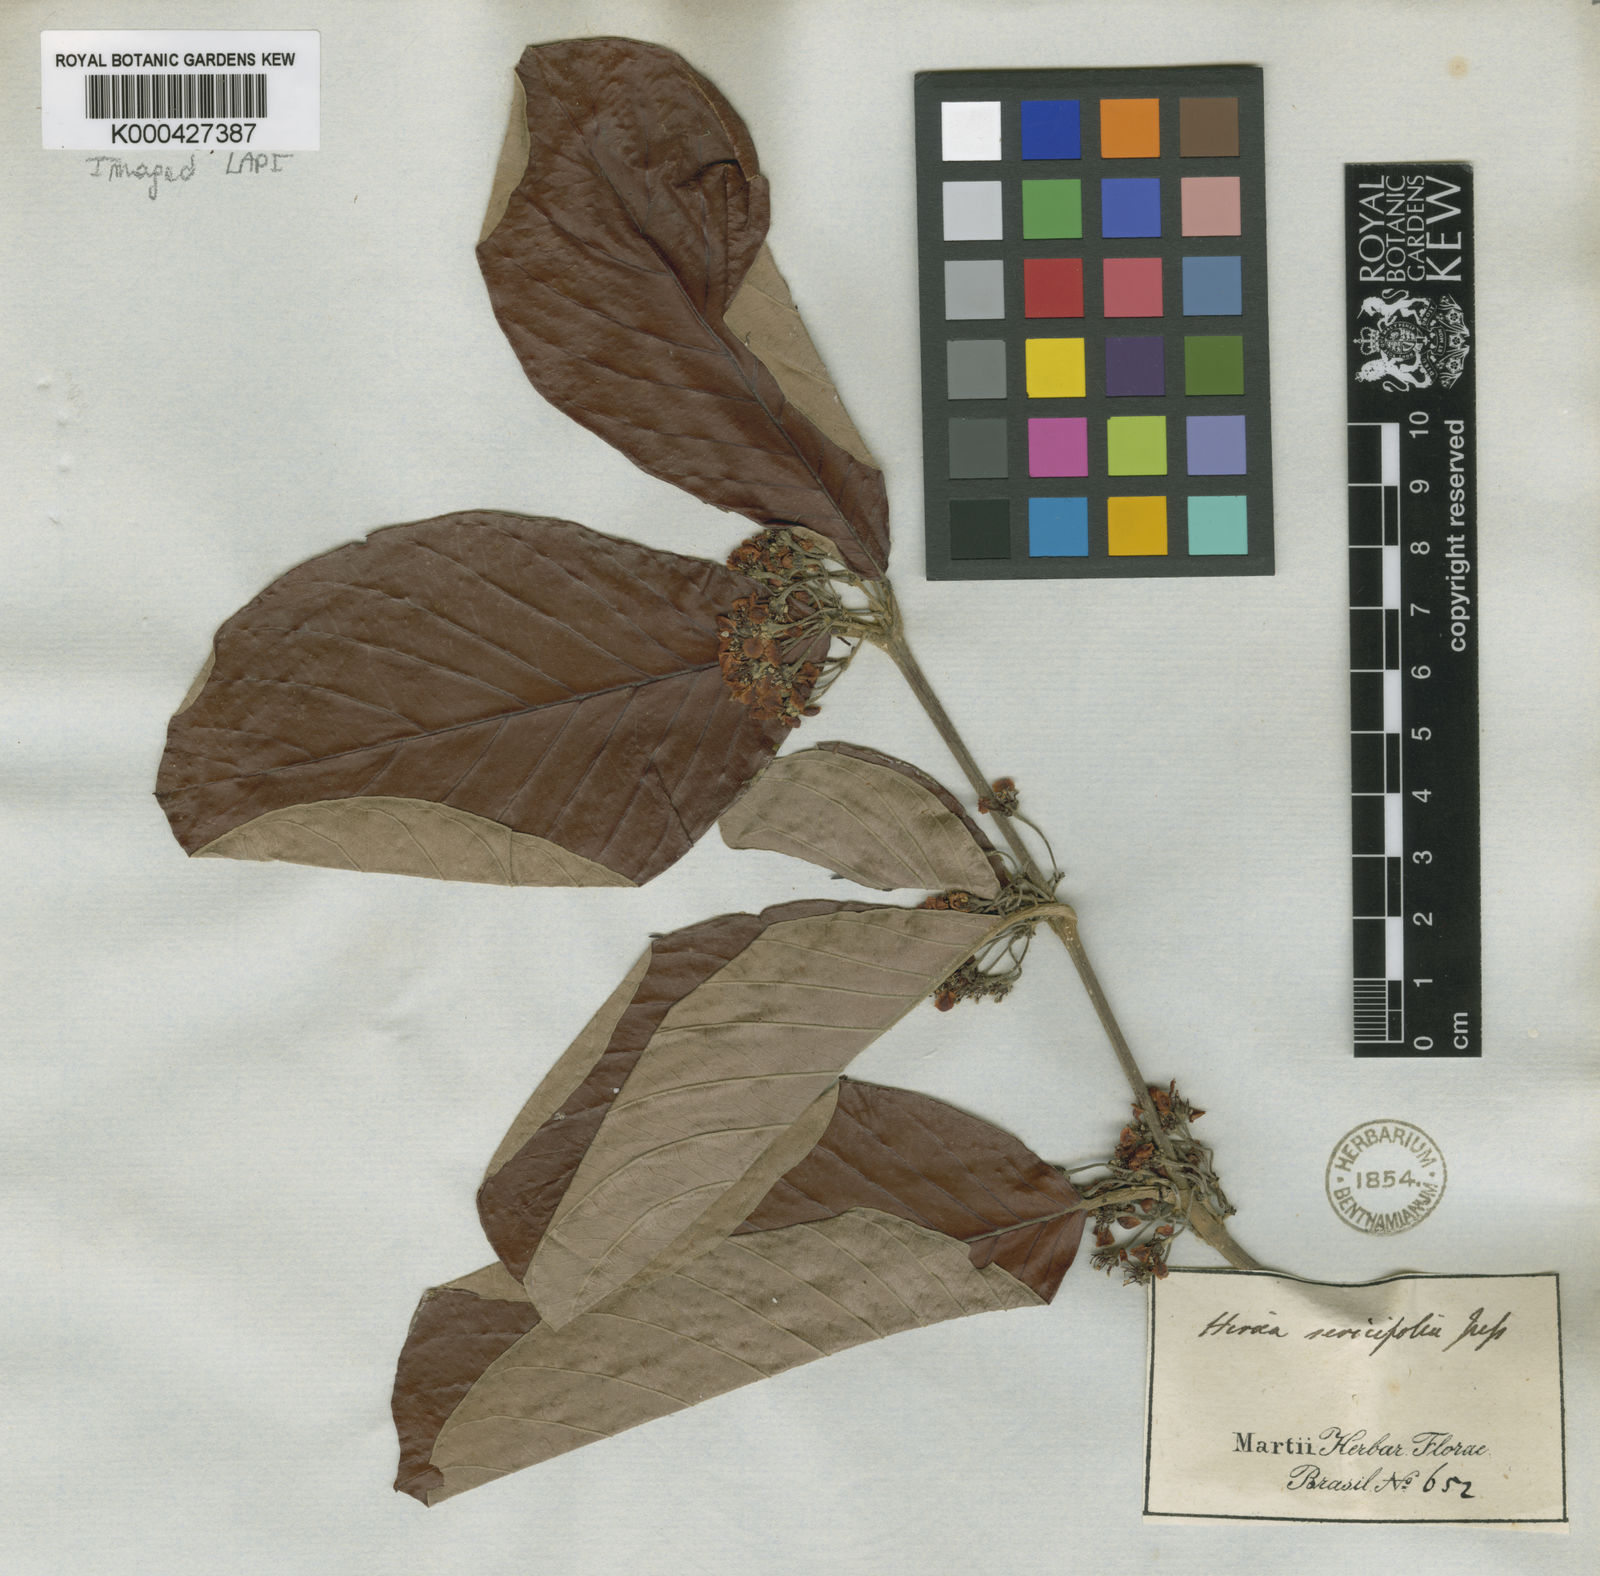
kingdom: Plantae
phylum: Tracheophyta
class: Magnoliopsida
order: Malpighiales
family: Malpighiaceae
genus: Hiraea
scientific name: Hiraea cuiabensis
